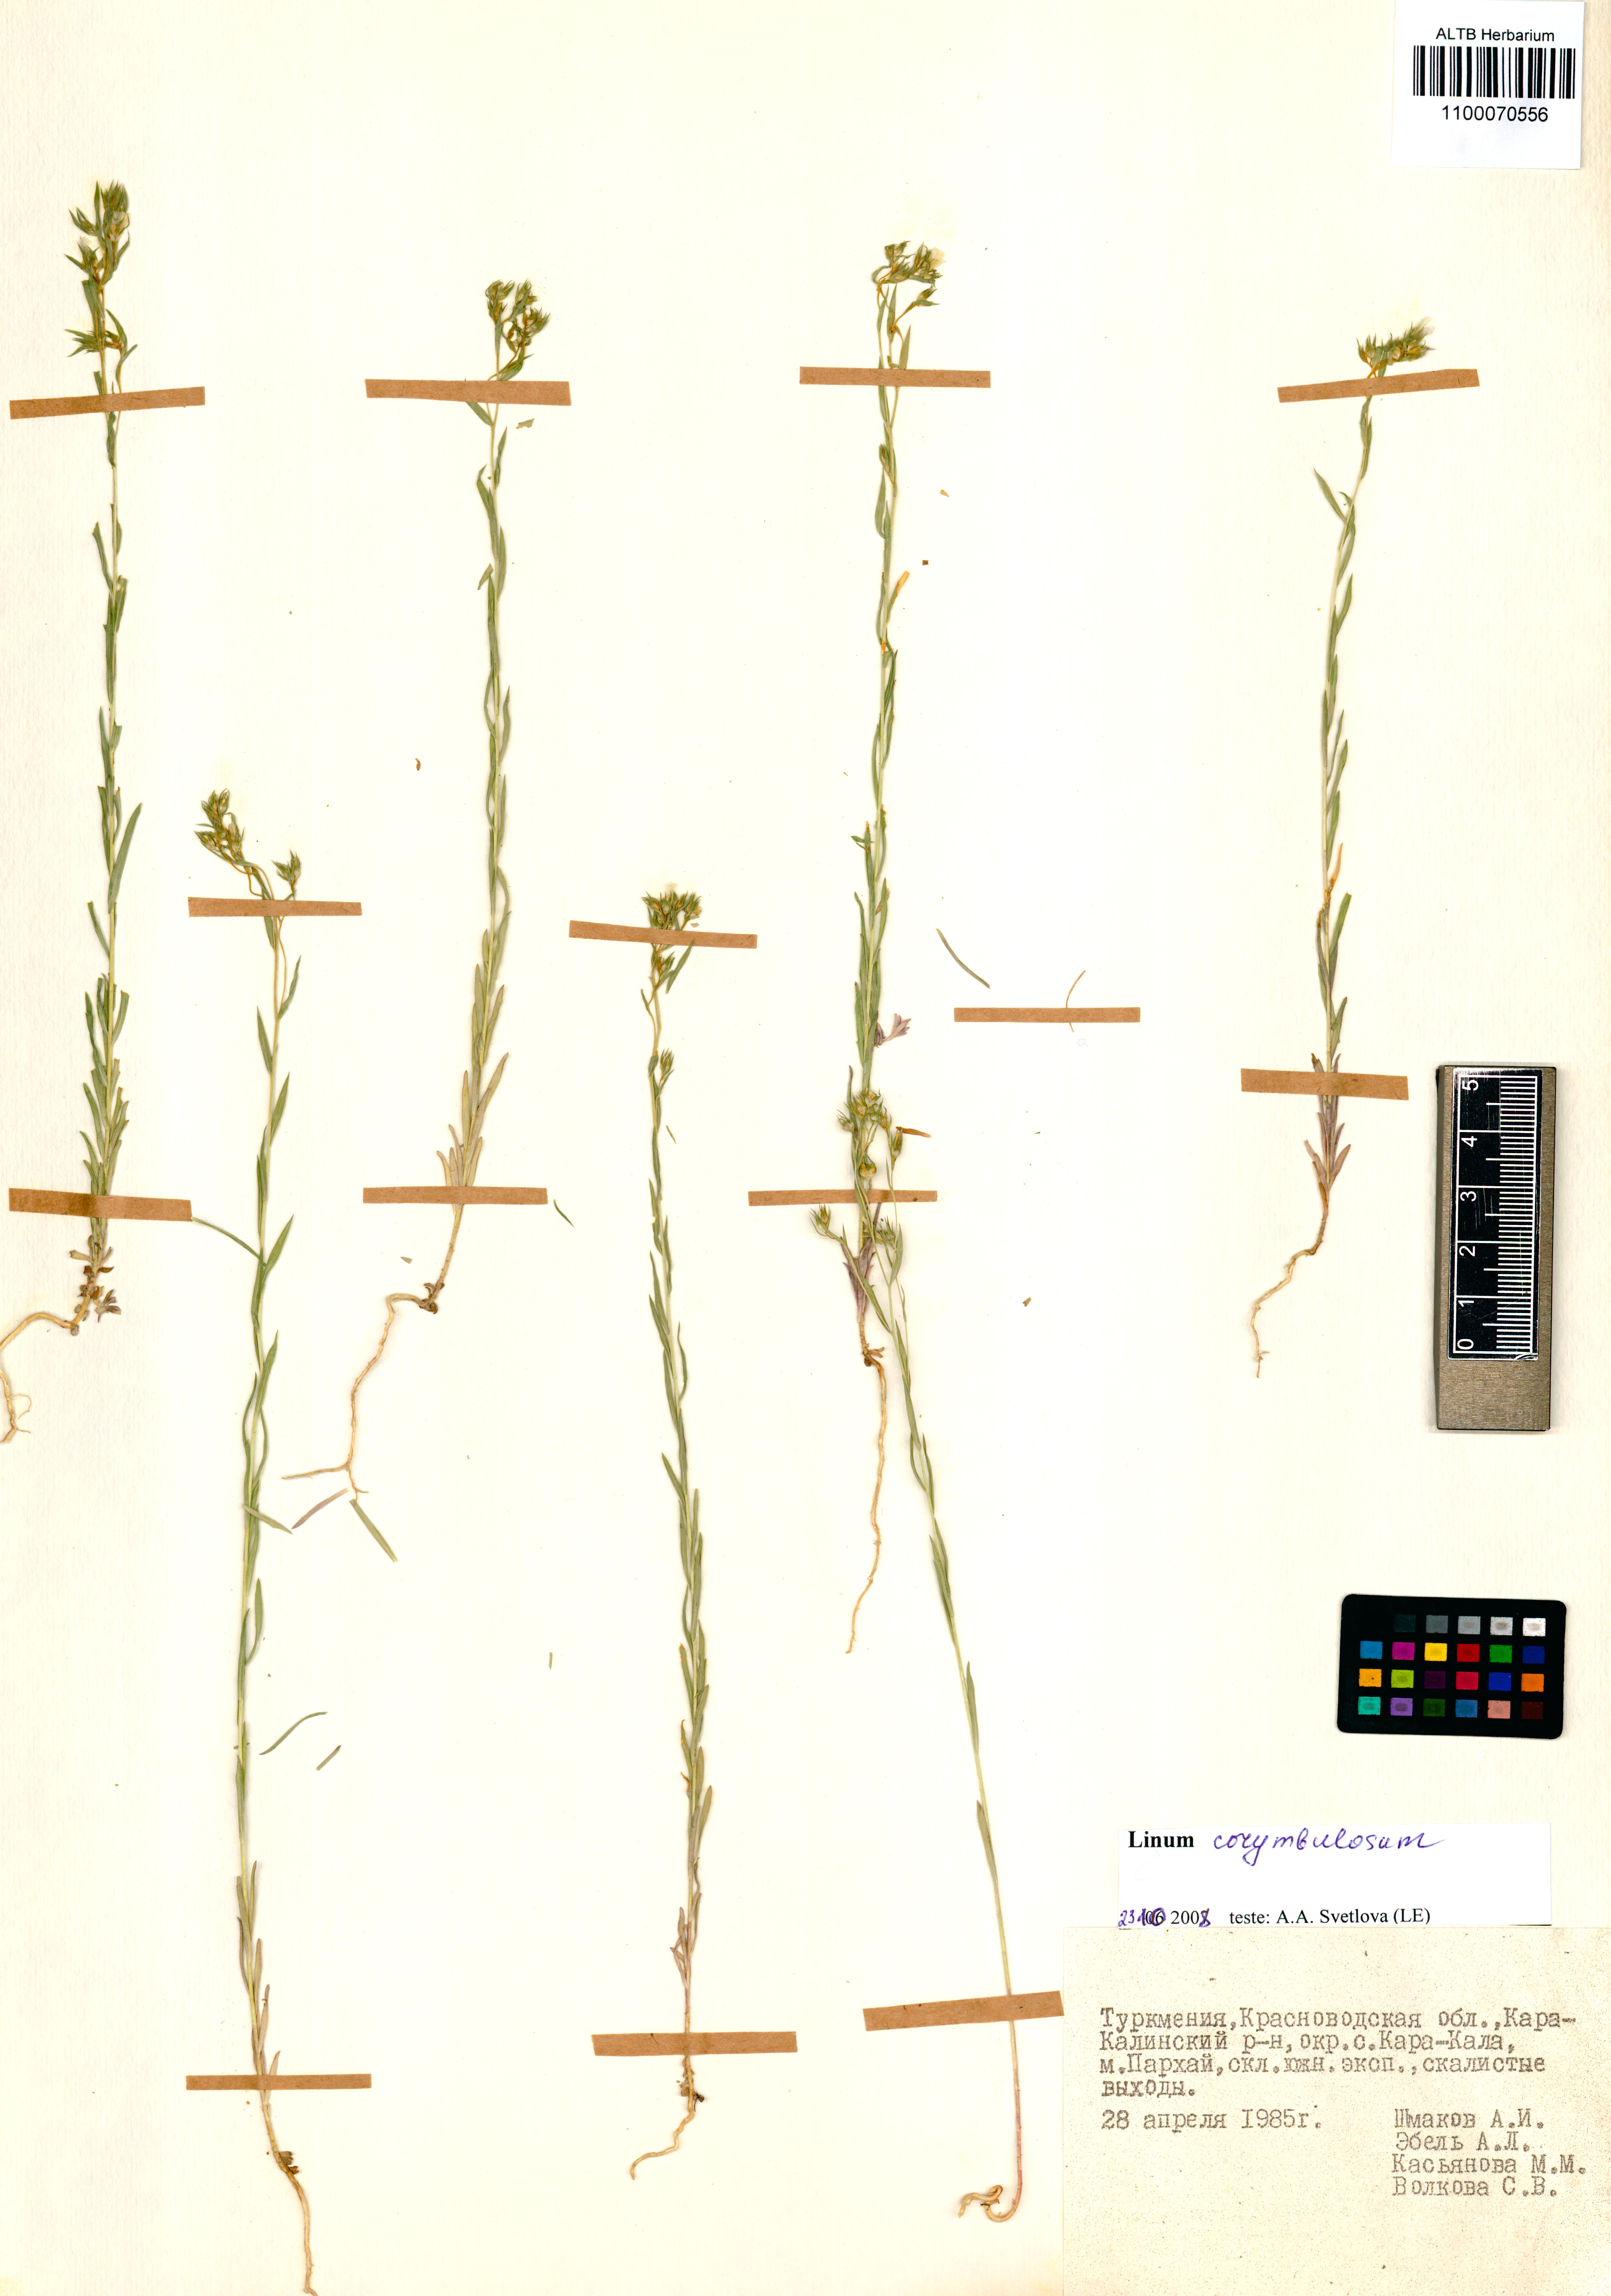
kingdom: Plantae
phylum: Tracheophyta
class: Magnoliopsida
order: Malpighiales
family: Linaceae
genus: Linum
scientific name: Linum corymbulosum
